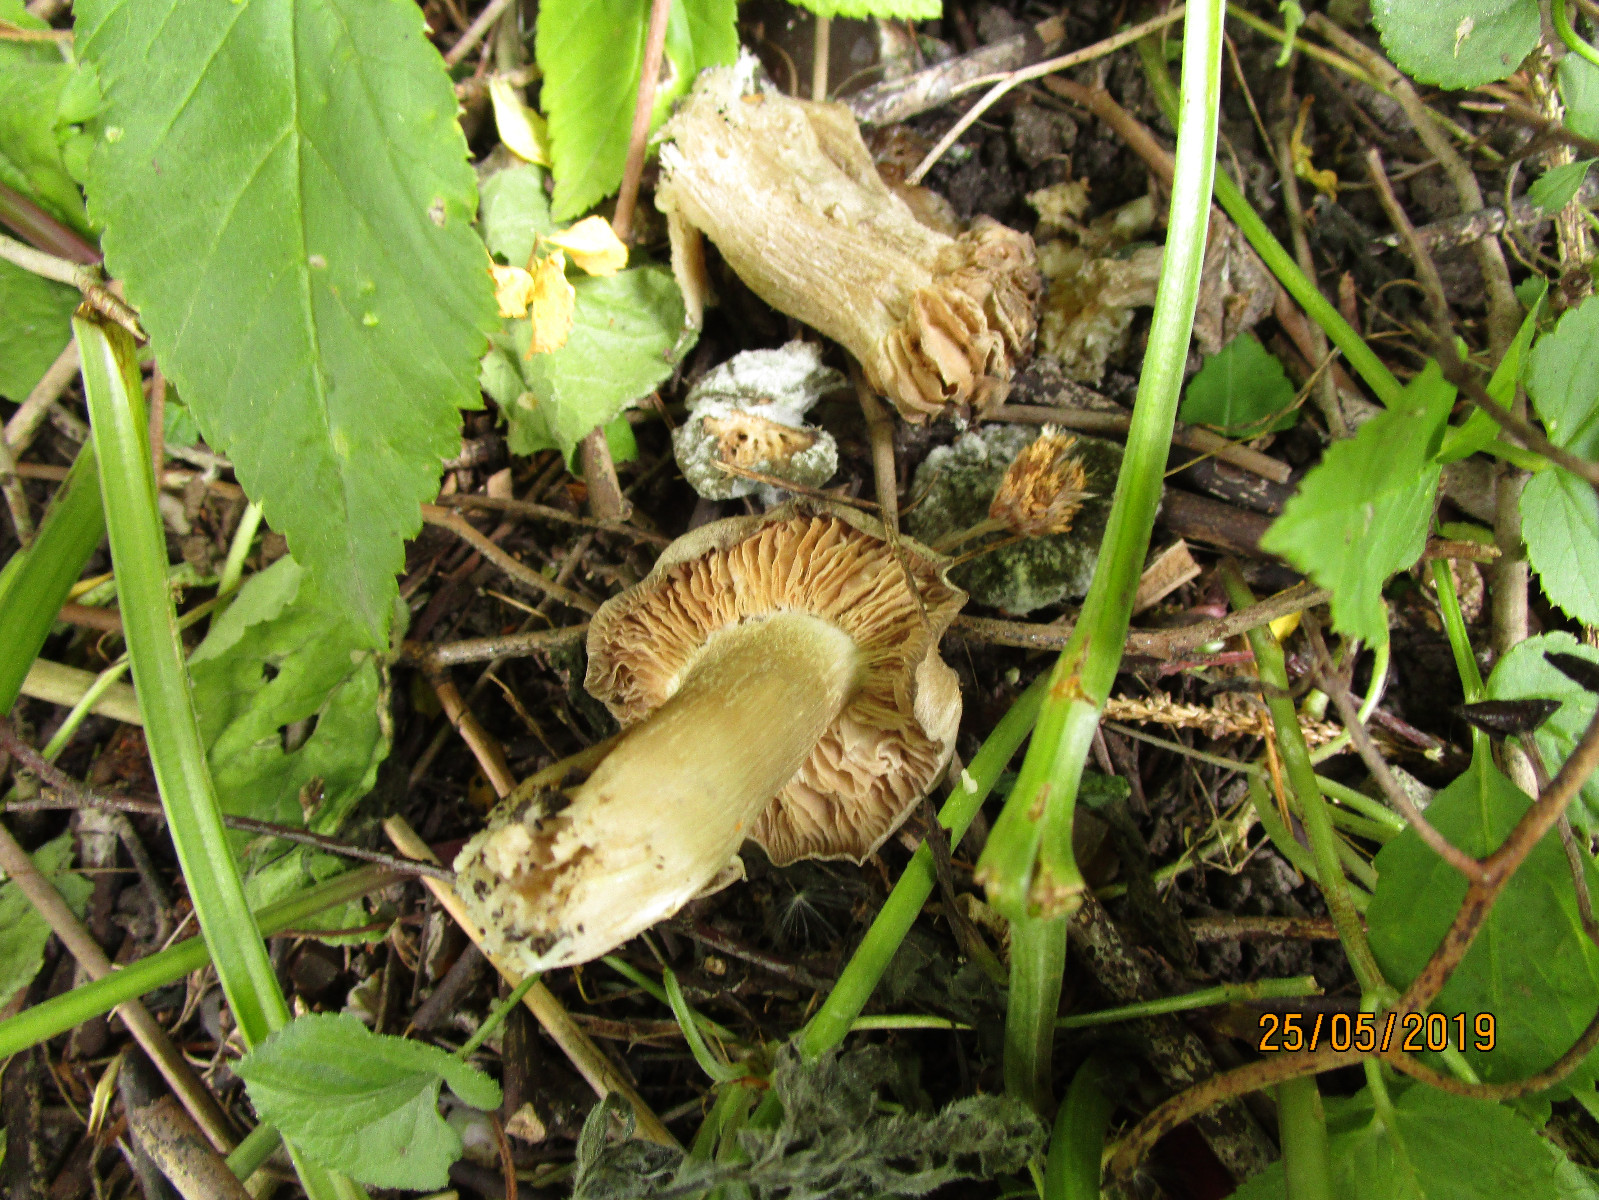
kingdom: Fungi
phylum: Basidiomycota
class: Agaricomycetes
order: Agaricales
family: Entolomataceae
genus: Entoloma
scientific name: Entoloma clypeatum
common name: flammet rødblad
